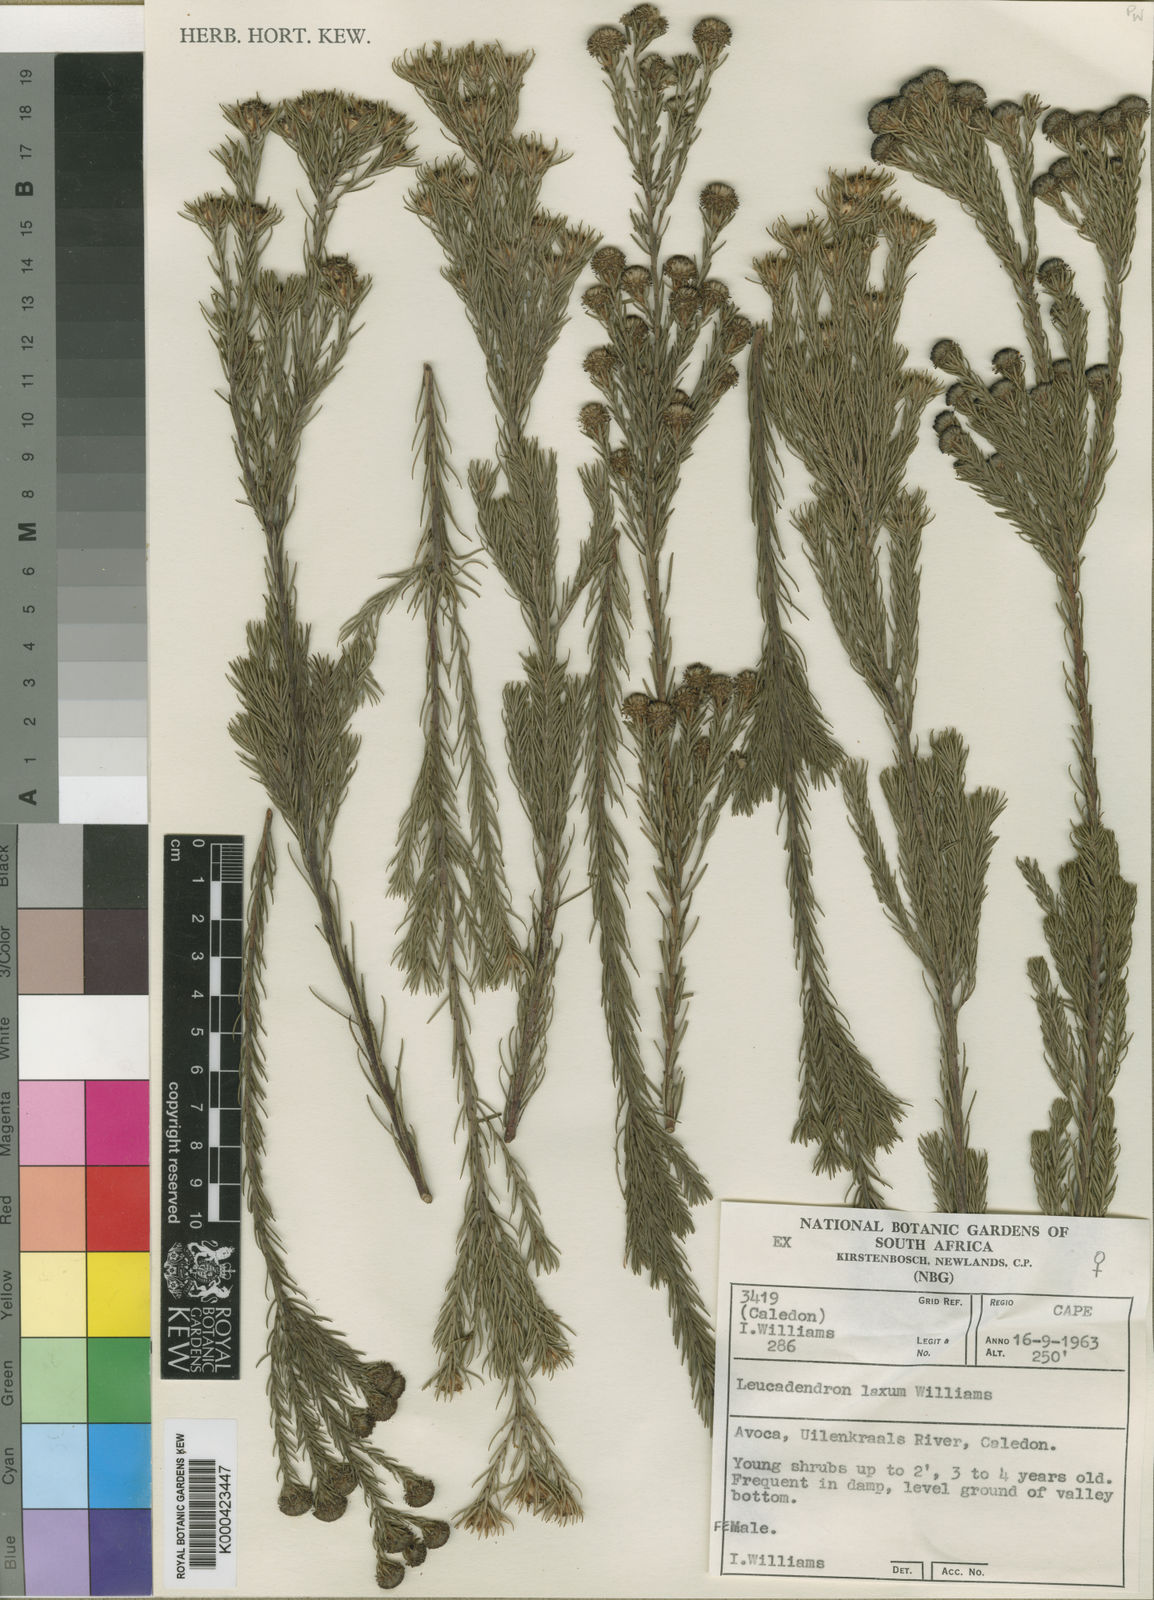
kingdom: Plantae
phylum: Tracheophyta
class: Magnoliopsida
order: Proteales
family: Proteaceae
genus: Leucadendron
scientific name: Leucadendron laxum
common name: Bredasdorp conebush
